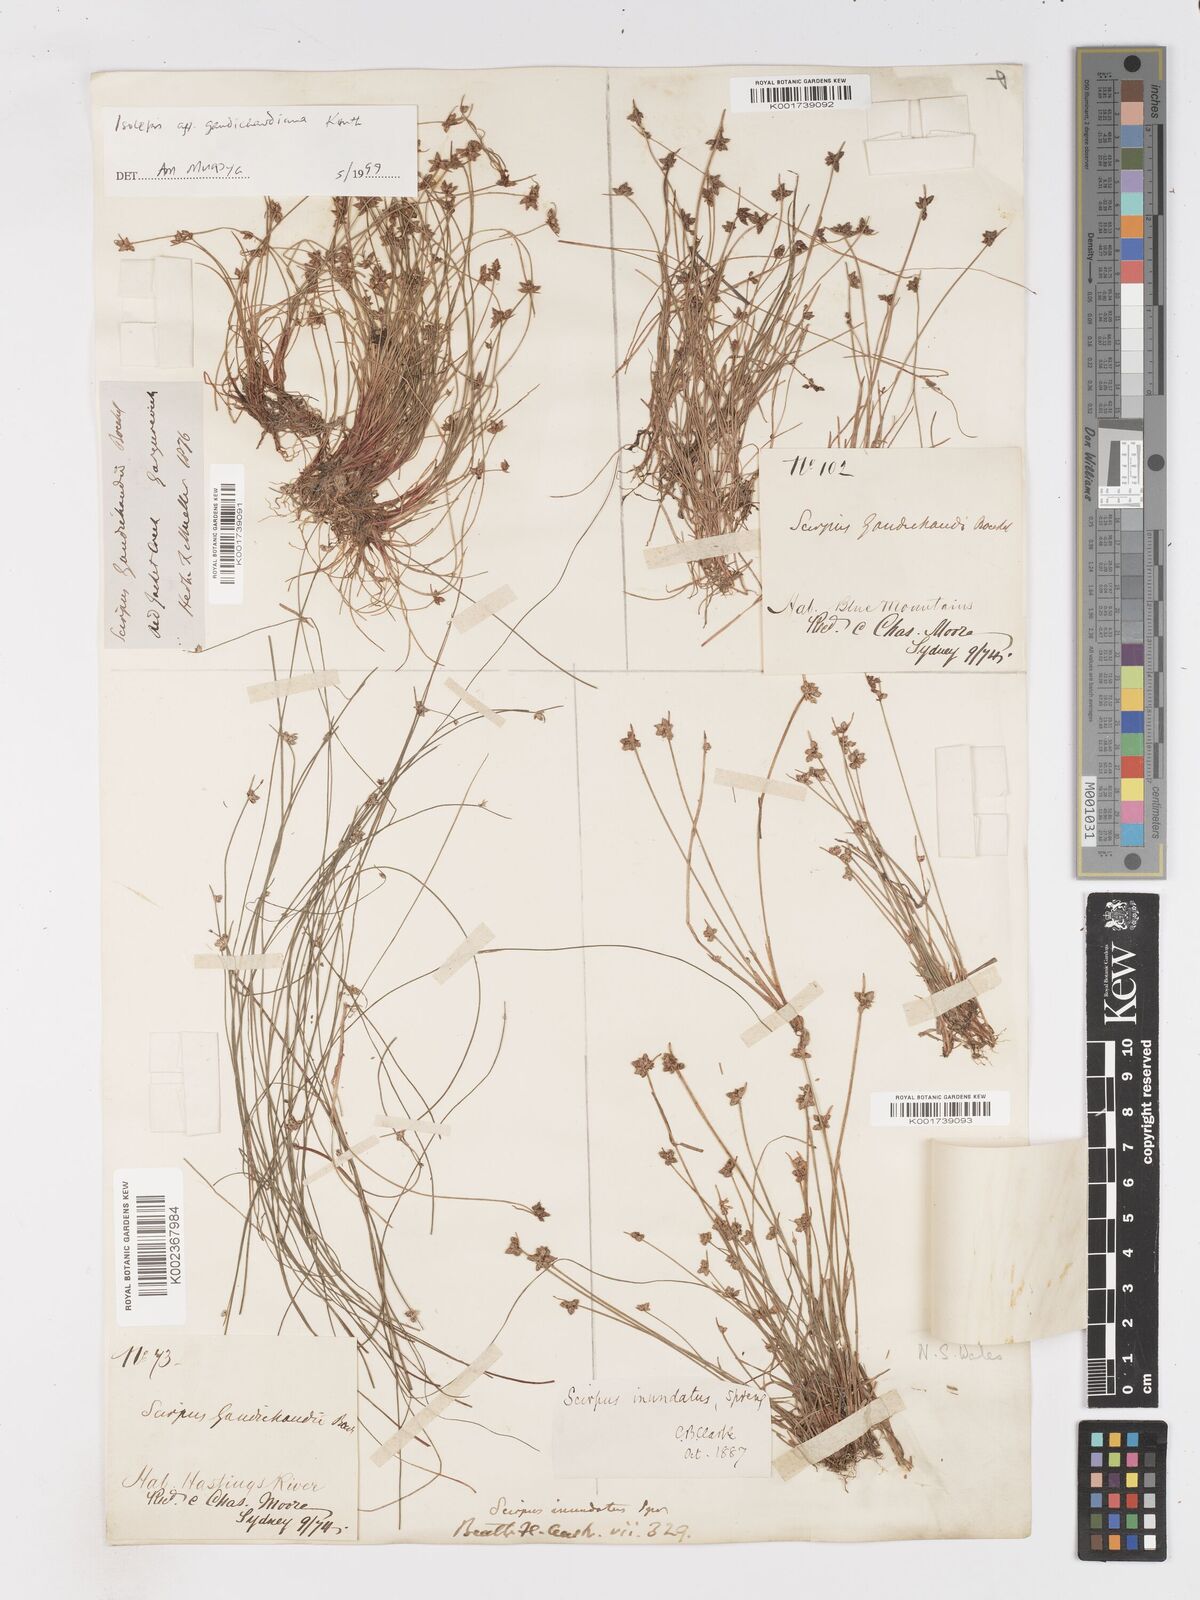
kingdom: Plantae
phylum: Tracheophyta
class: Liliopsida
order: Poales
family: Cyperaceae
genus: Isolepis
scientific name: Isolepis inundata
